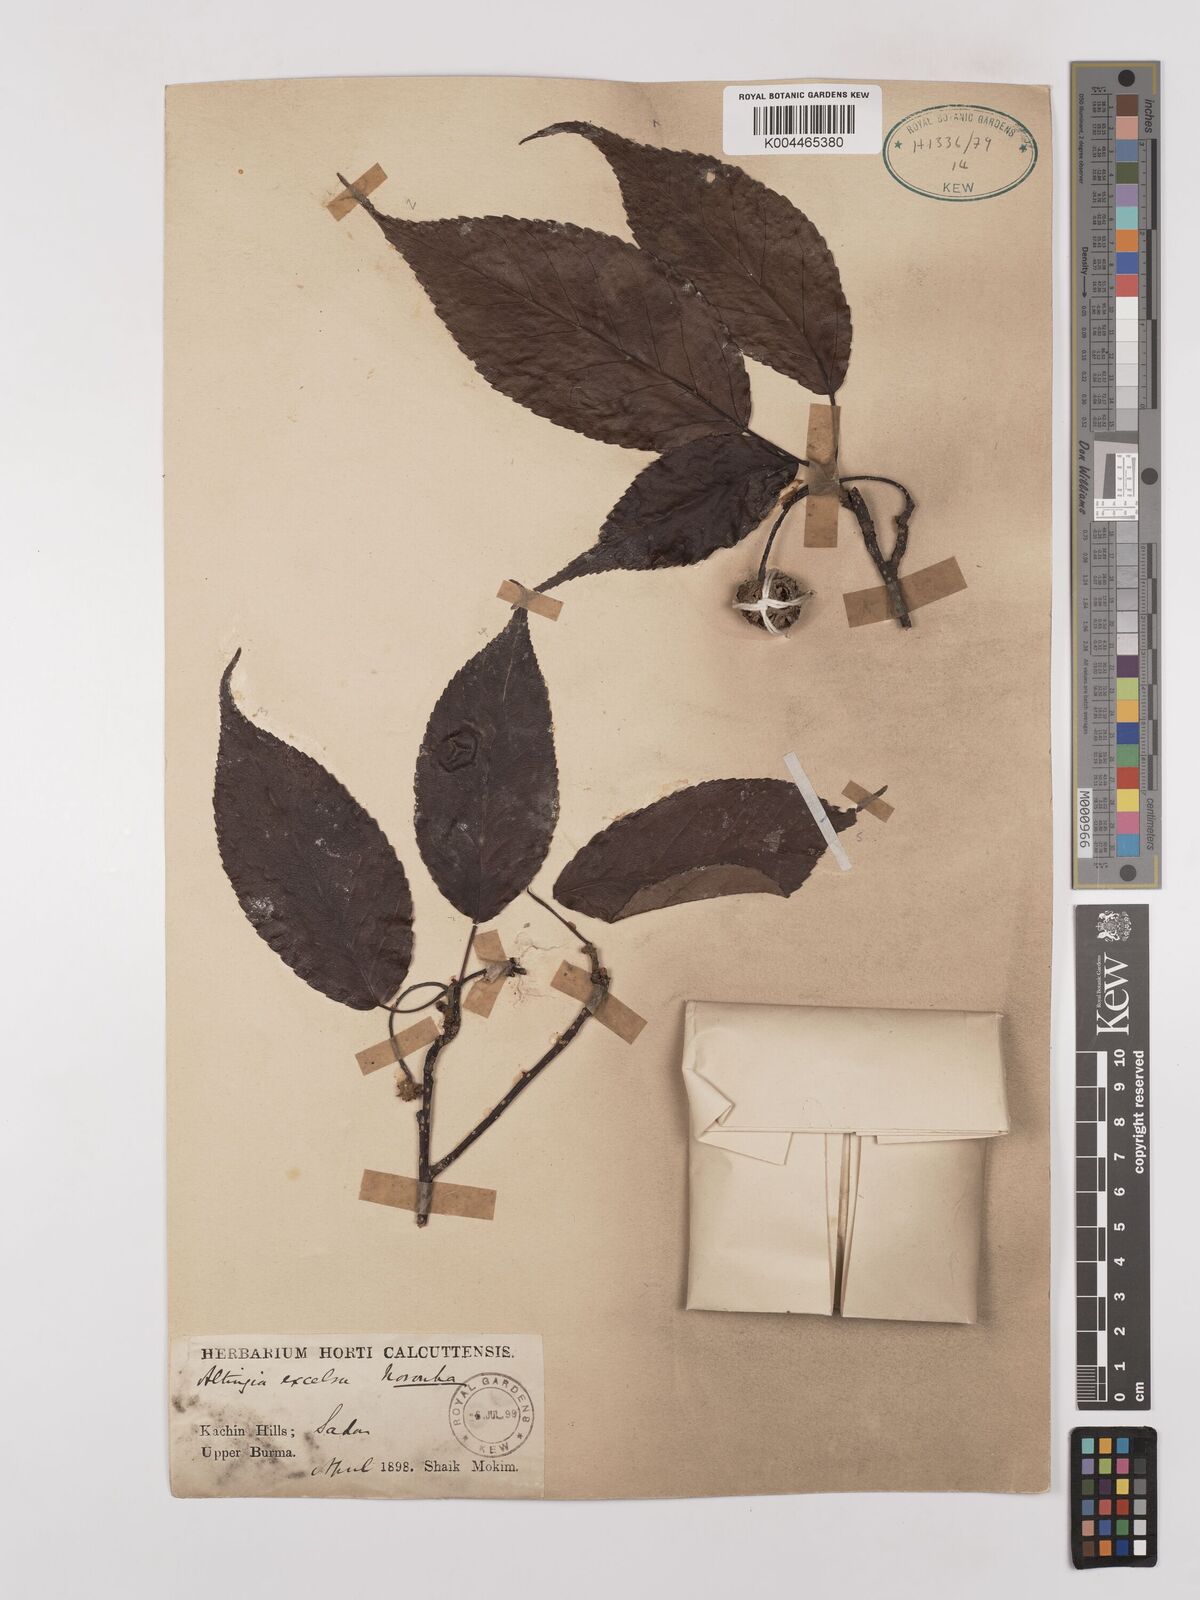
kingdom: Plantae
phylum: Tracheophyta
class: Magnoliopsida
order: Saxifragales
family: Altingiaceae
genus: Liquidambar
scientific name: Liquidambar excelsa
